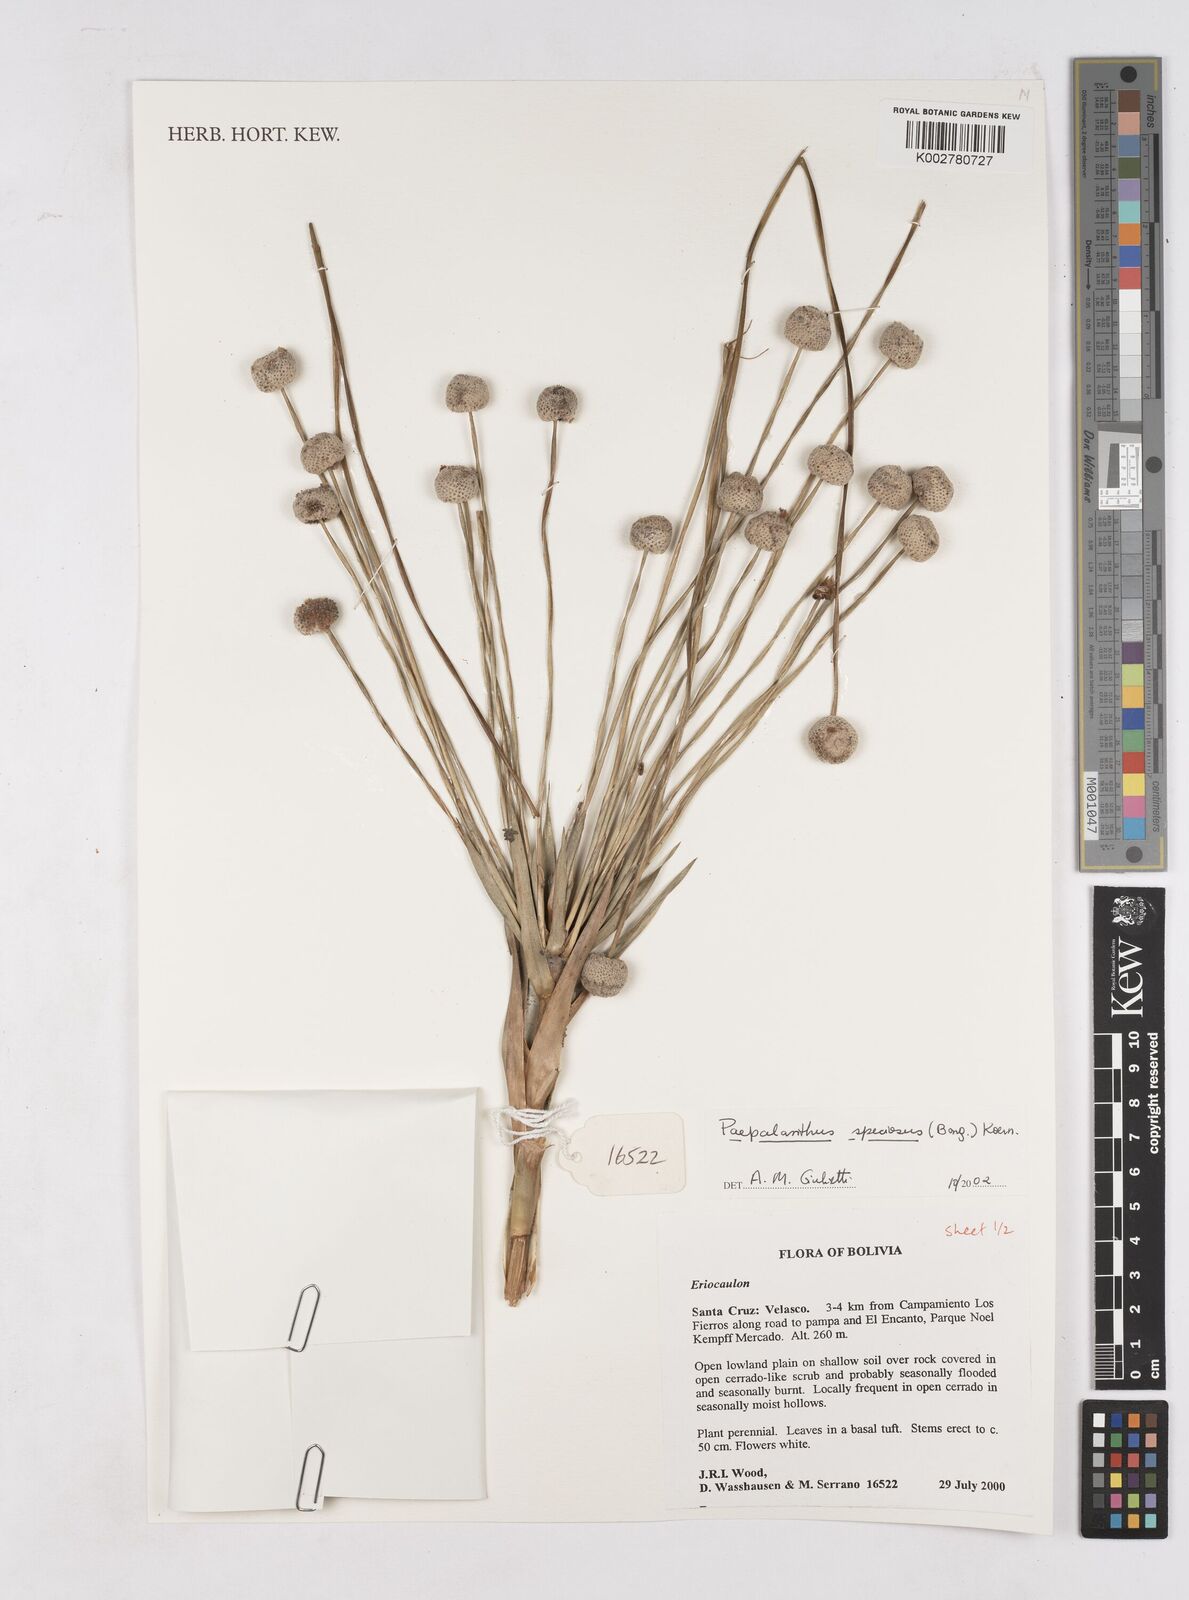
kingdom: Plantae
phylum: Tracheophyta
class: Liliopsida
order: Poales
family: Eriocaulaceae
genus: Paepalanthus
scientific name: Paepalanthus chiquitensis
